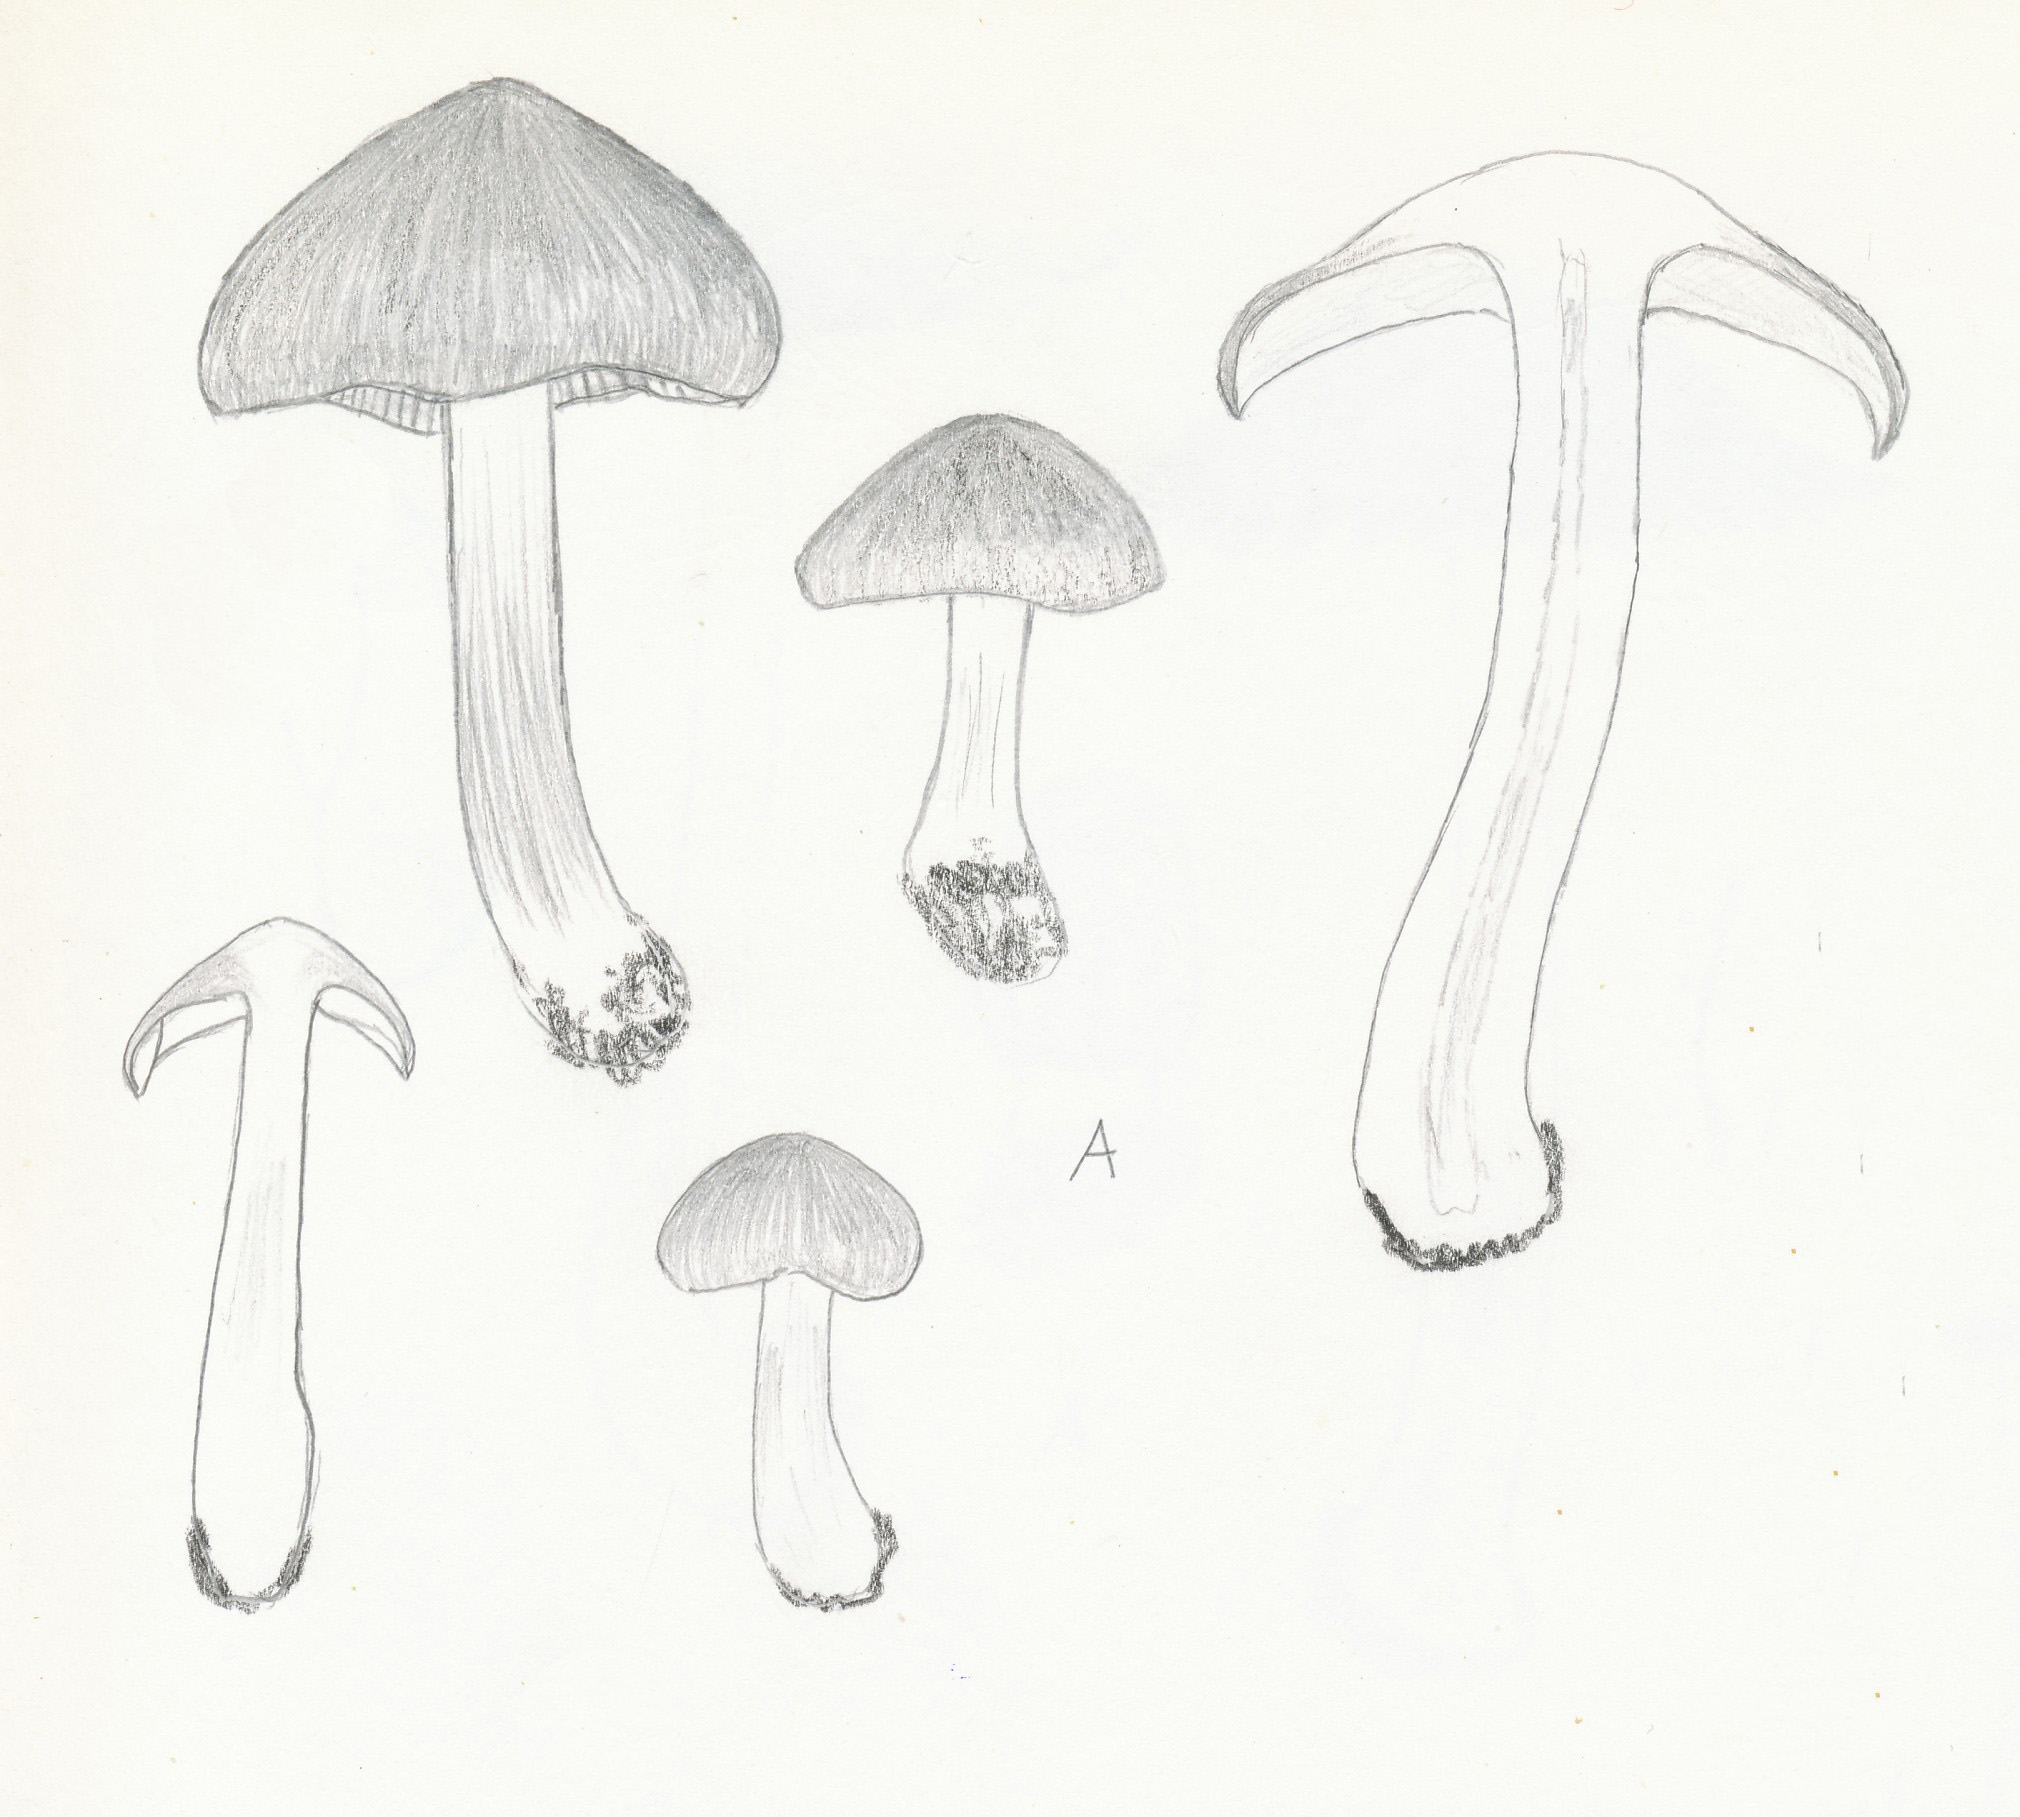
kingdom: Fungi
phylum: Basidiomycota
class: Agaricomycetes
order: Agaricales
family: Entolomataceae
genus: Entoloma
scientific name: Entoloma aprile
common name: maj-rødblad
